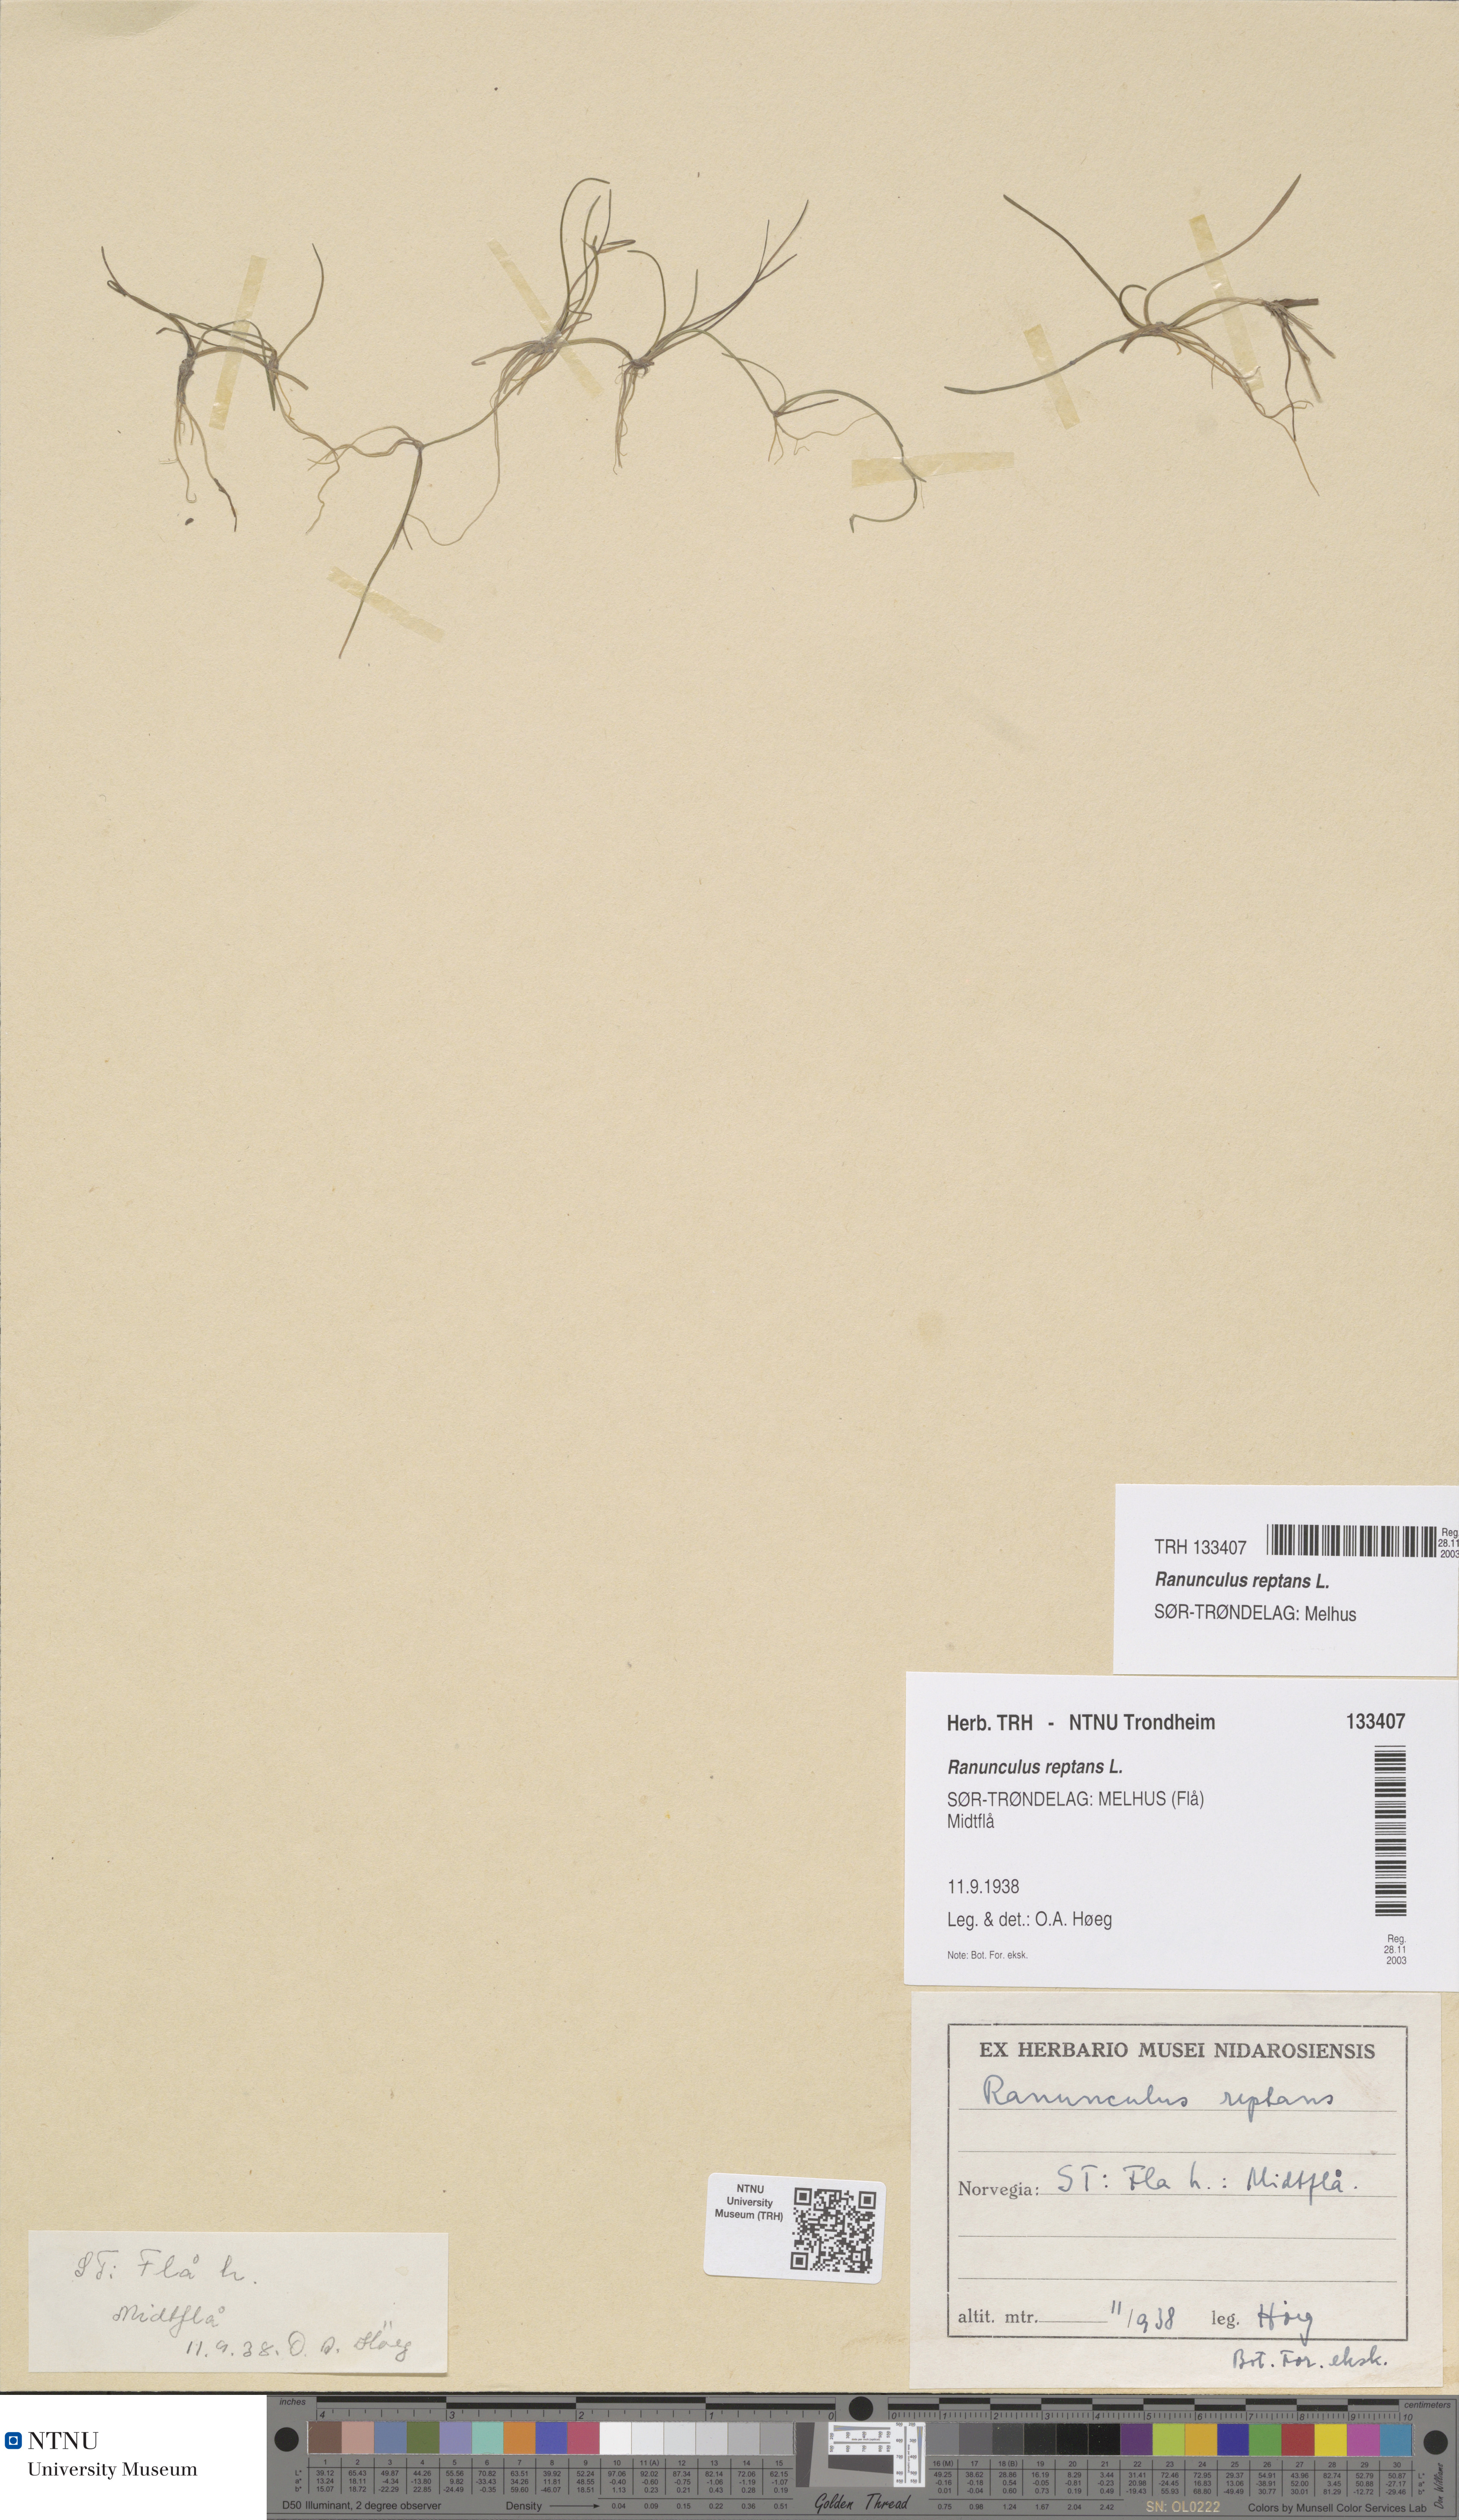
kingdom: Plantae
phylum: Tracheophyta
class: Magnoliopsida
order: Ranunculales
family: Ranunculaceae
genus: Ranunculus
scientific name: Ranunculus reptans
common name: Creeping spearwort
